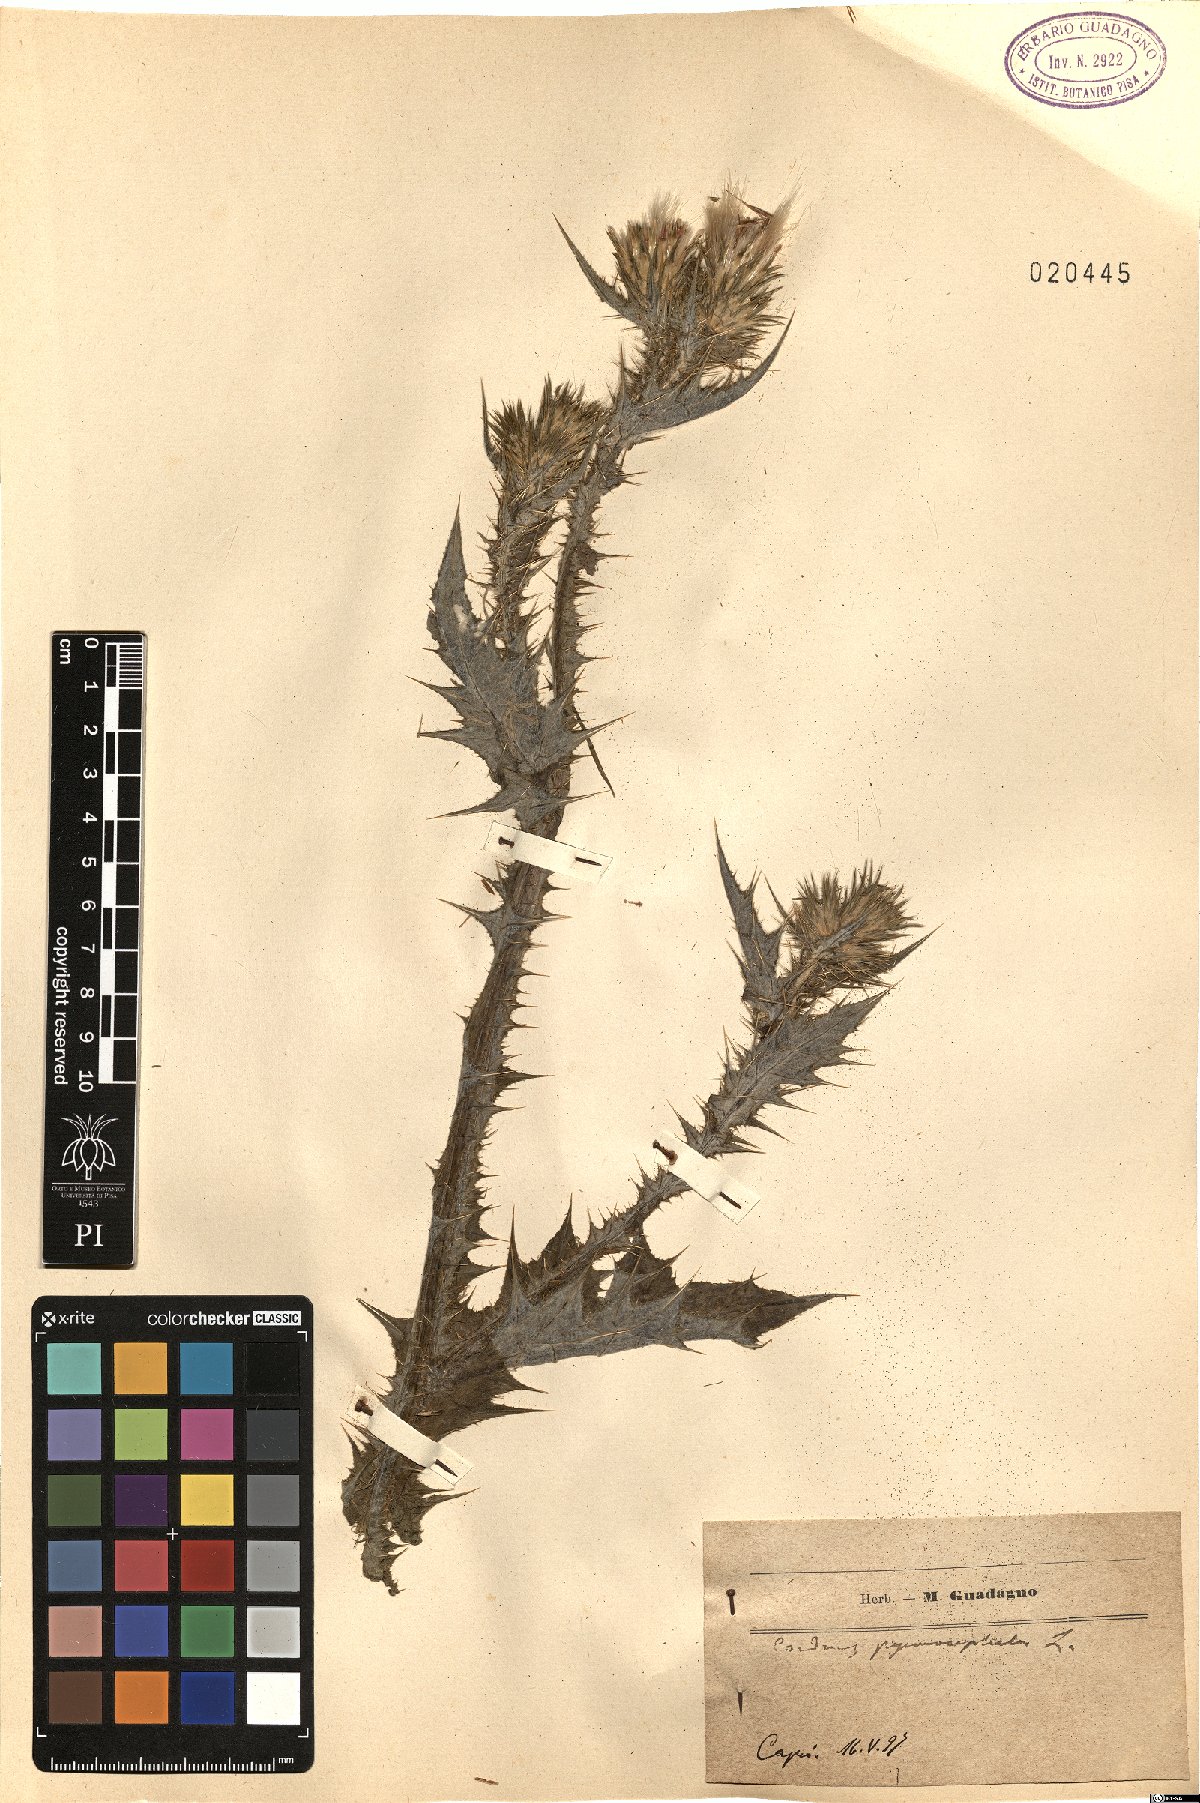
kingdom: Plantae
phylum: Tracheophyta
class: Magnoliopsida
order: Asterales
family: Asteraceae
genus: Carduus
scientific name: Carduus pycnocephalus
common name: Plymouth thistle
